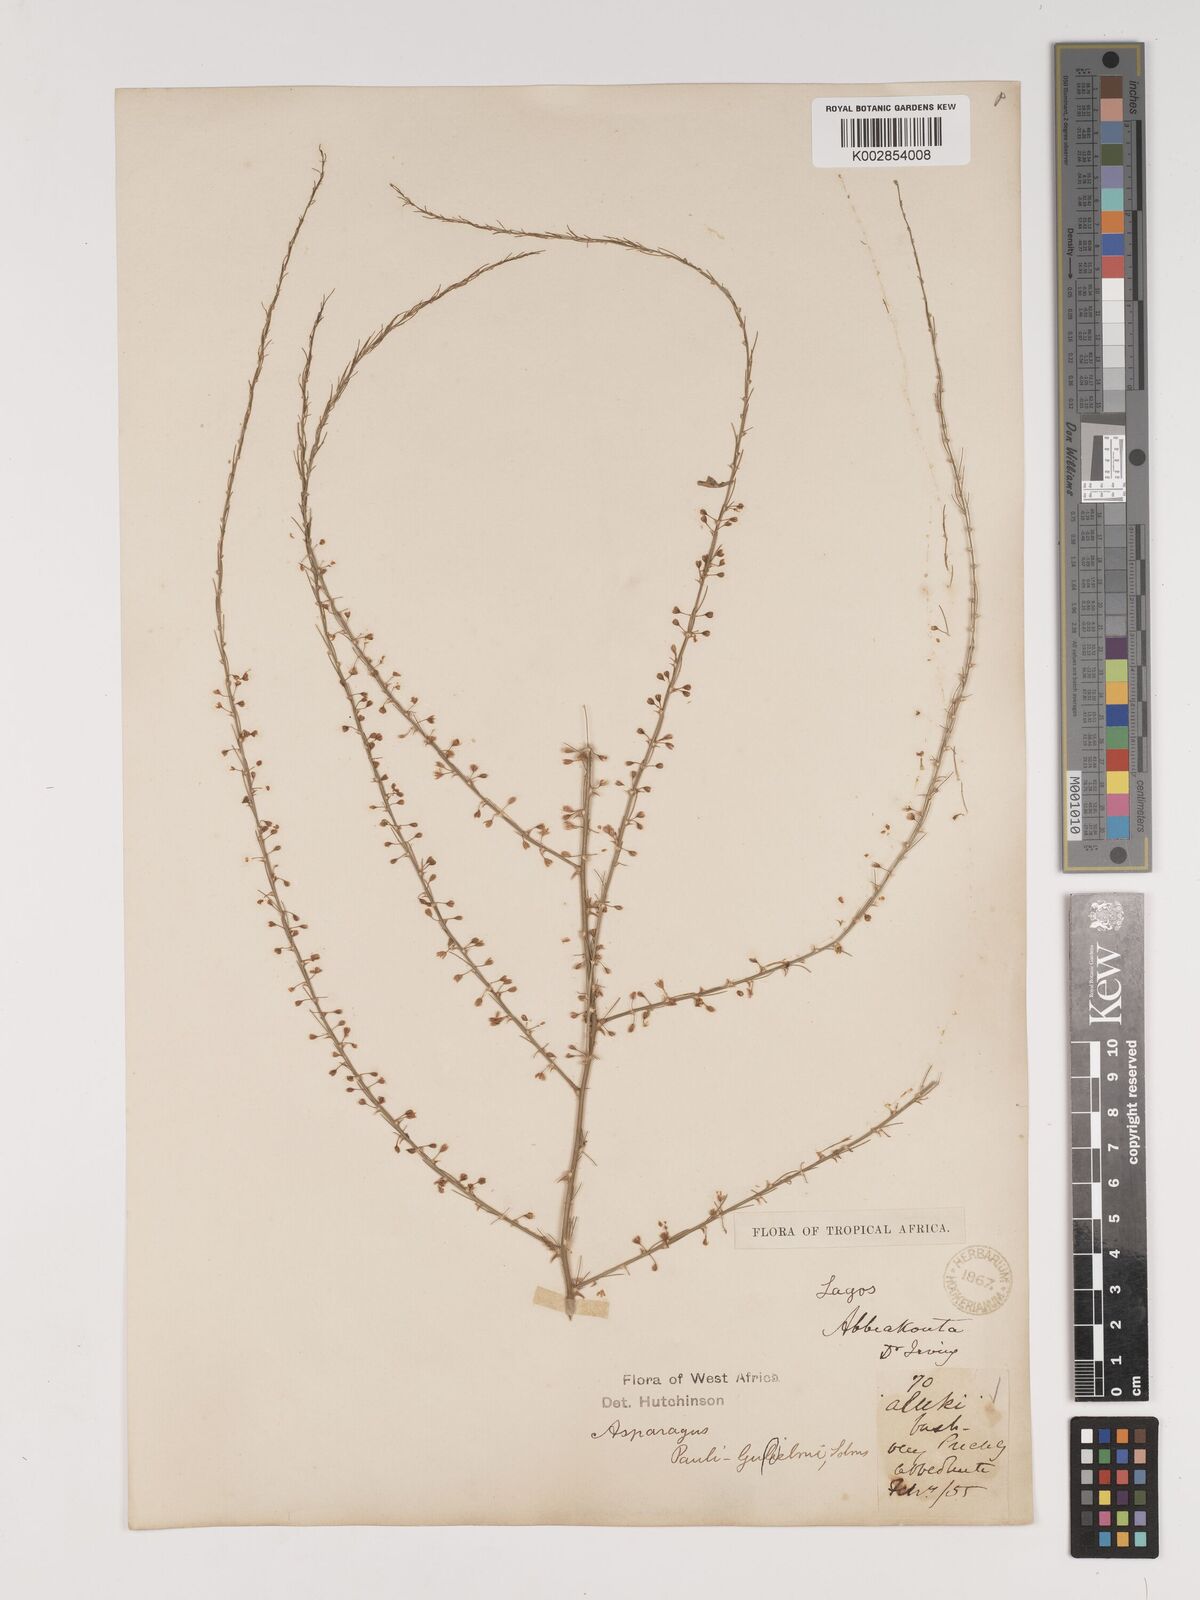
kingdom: Plantae
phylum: Tracheophyta
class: Liliopsida
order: Asparagales
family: Asparagaceae
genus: Asparagus
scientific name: Asparagus flagellaris
